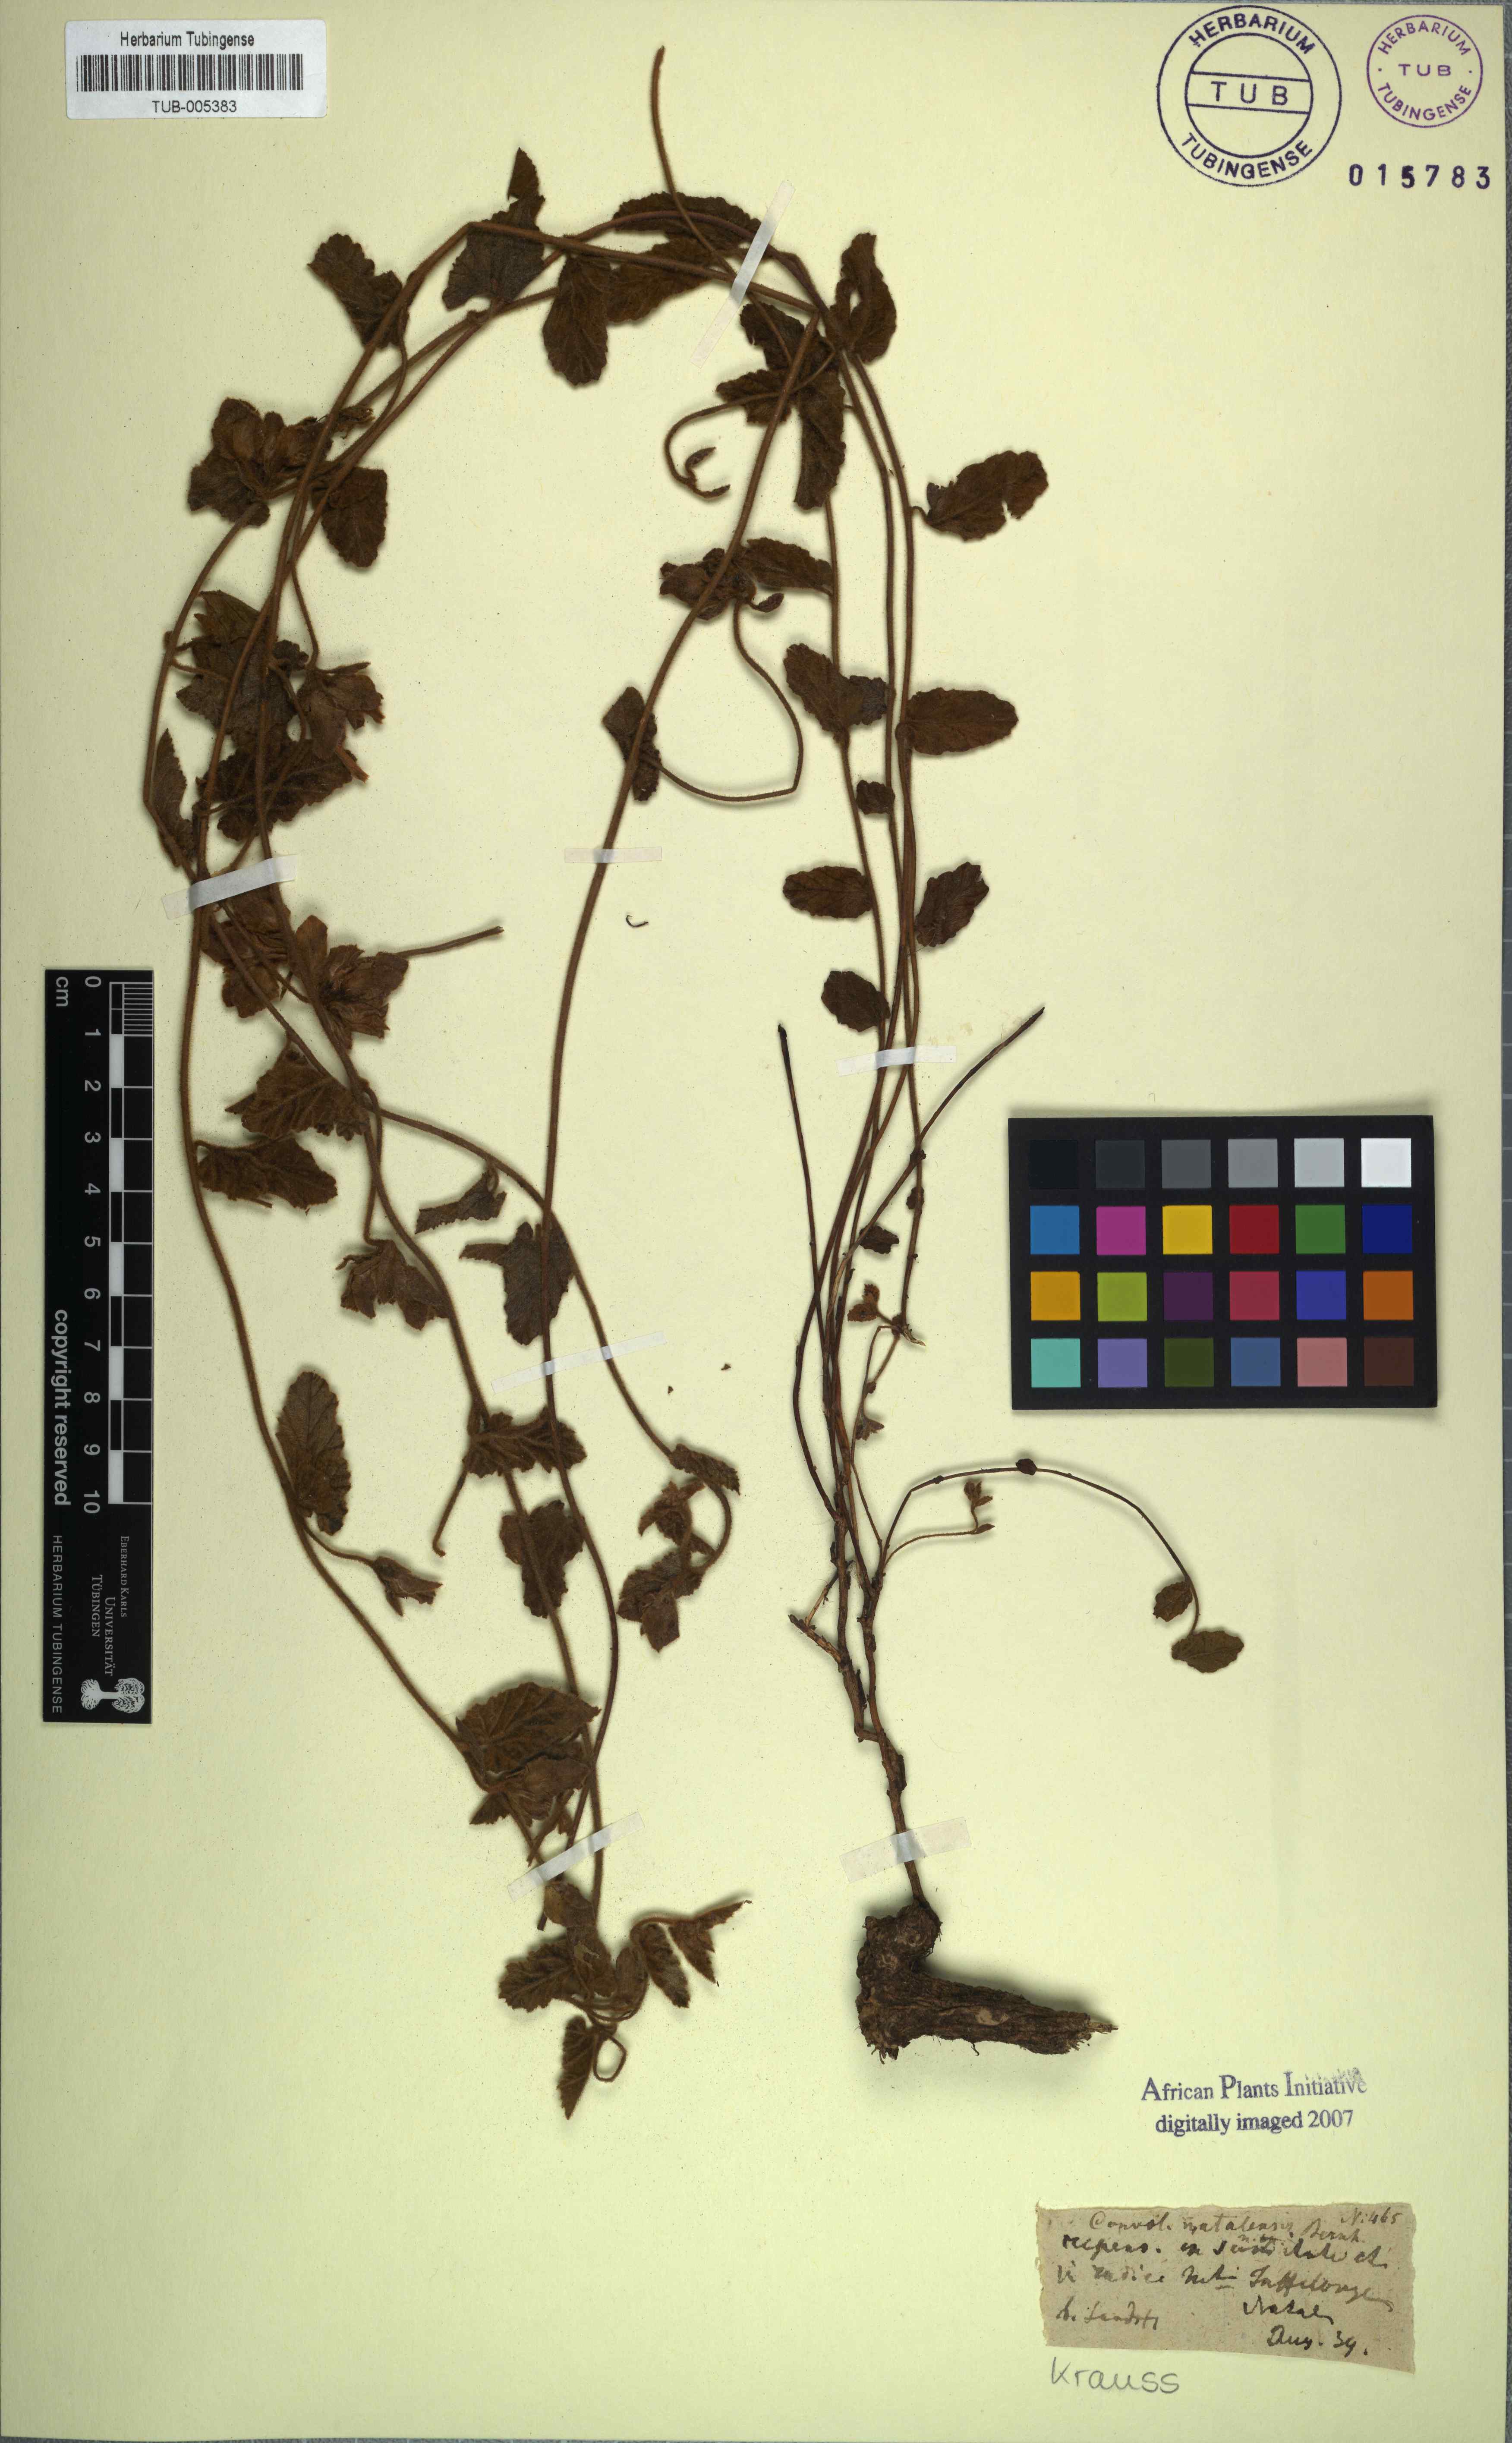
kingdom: Plantae
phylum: Tracheophyta
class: Magnoliopsida
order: Solanales
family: Convolvulaceae
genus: Convolvulus
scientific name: Convolvulus natalensis
